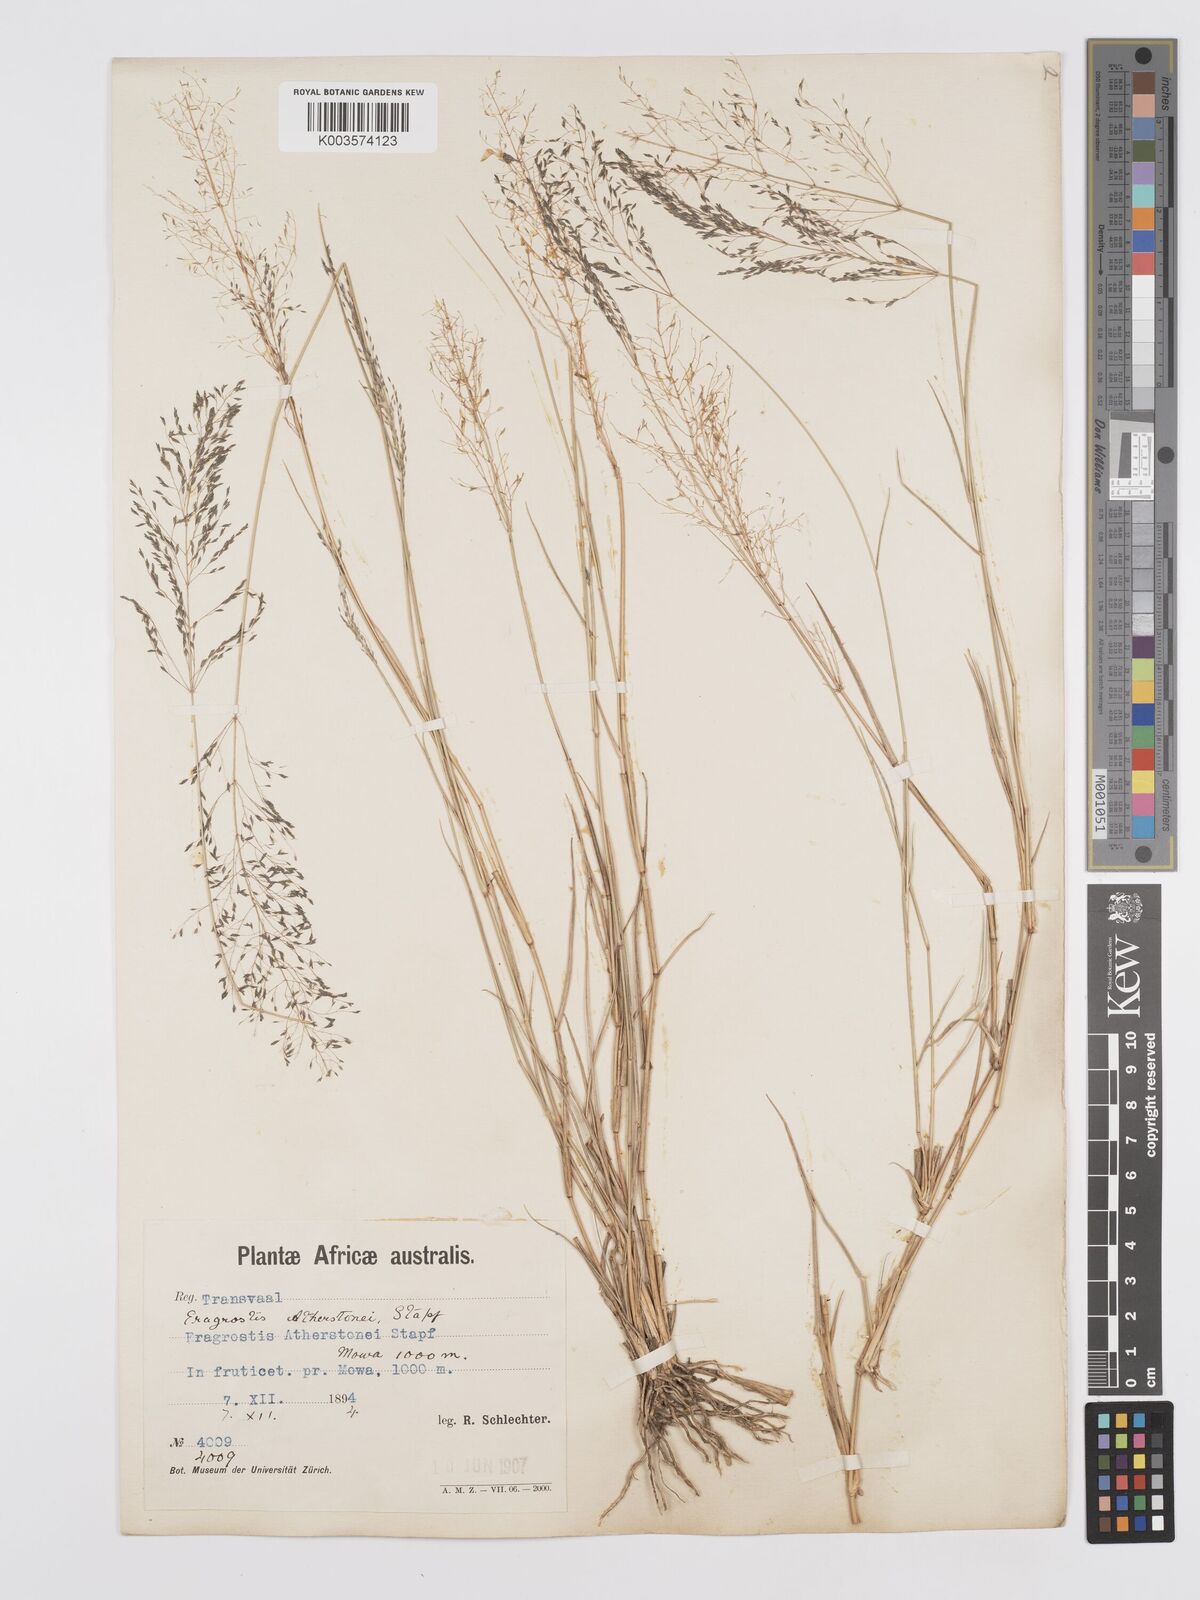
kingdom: Plantae
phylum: Tracheophyta
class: Liliopsida
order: Poales
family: Poaceae
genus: Eragrostis
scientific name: Eragrostis cylindriflora
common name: Cylinderflower lovegrass
